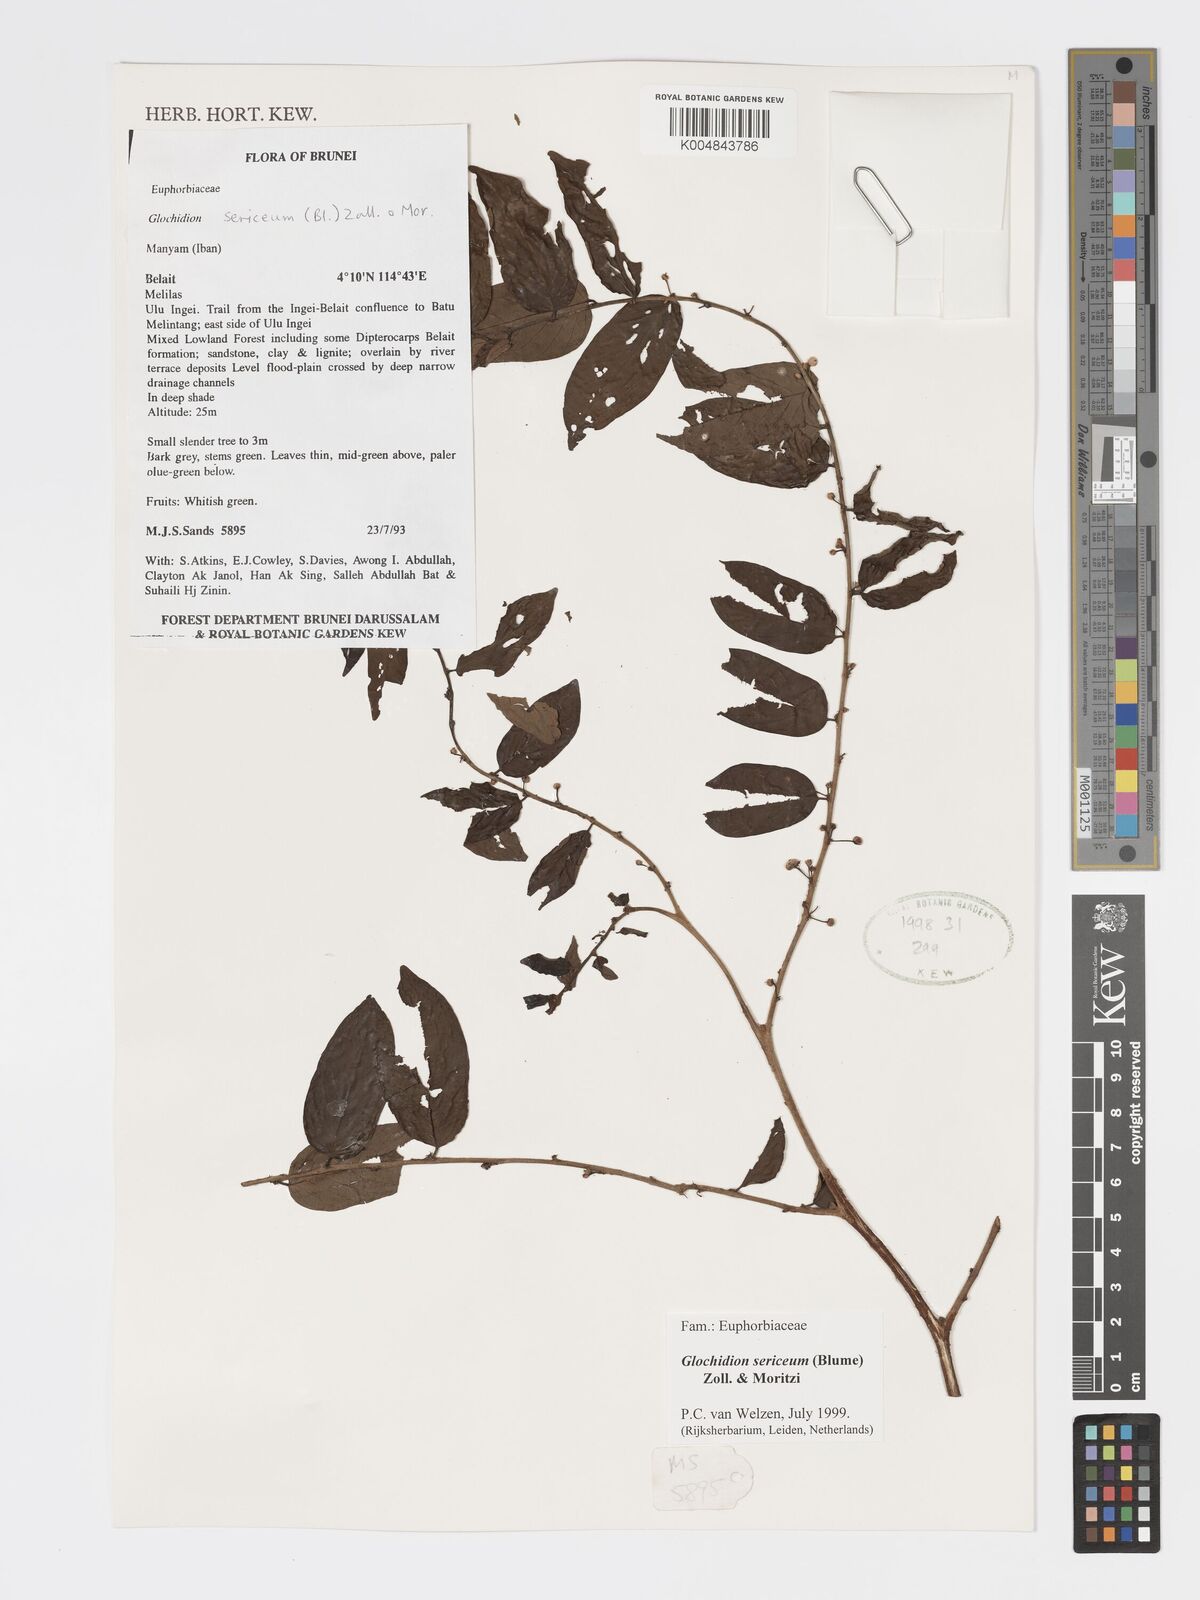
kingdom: Plantae
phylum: Tracheophyta
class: Magnoliopsida
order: Malpighiales
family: Phyllanthaceae
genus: Glochidion
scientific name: Glochidion sericeum
